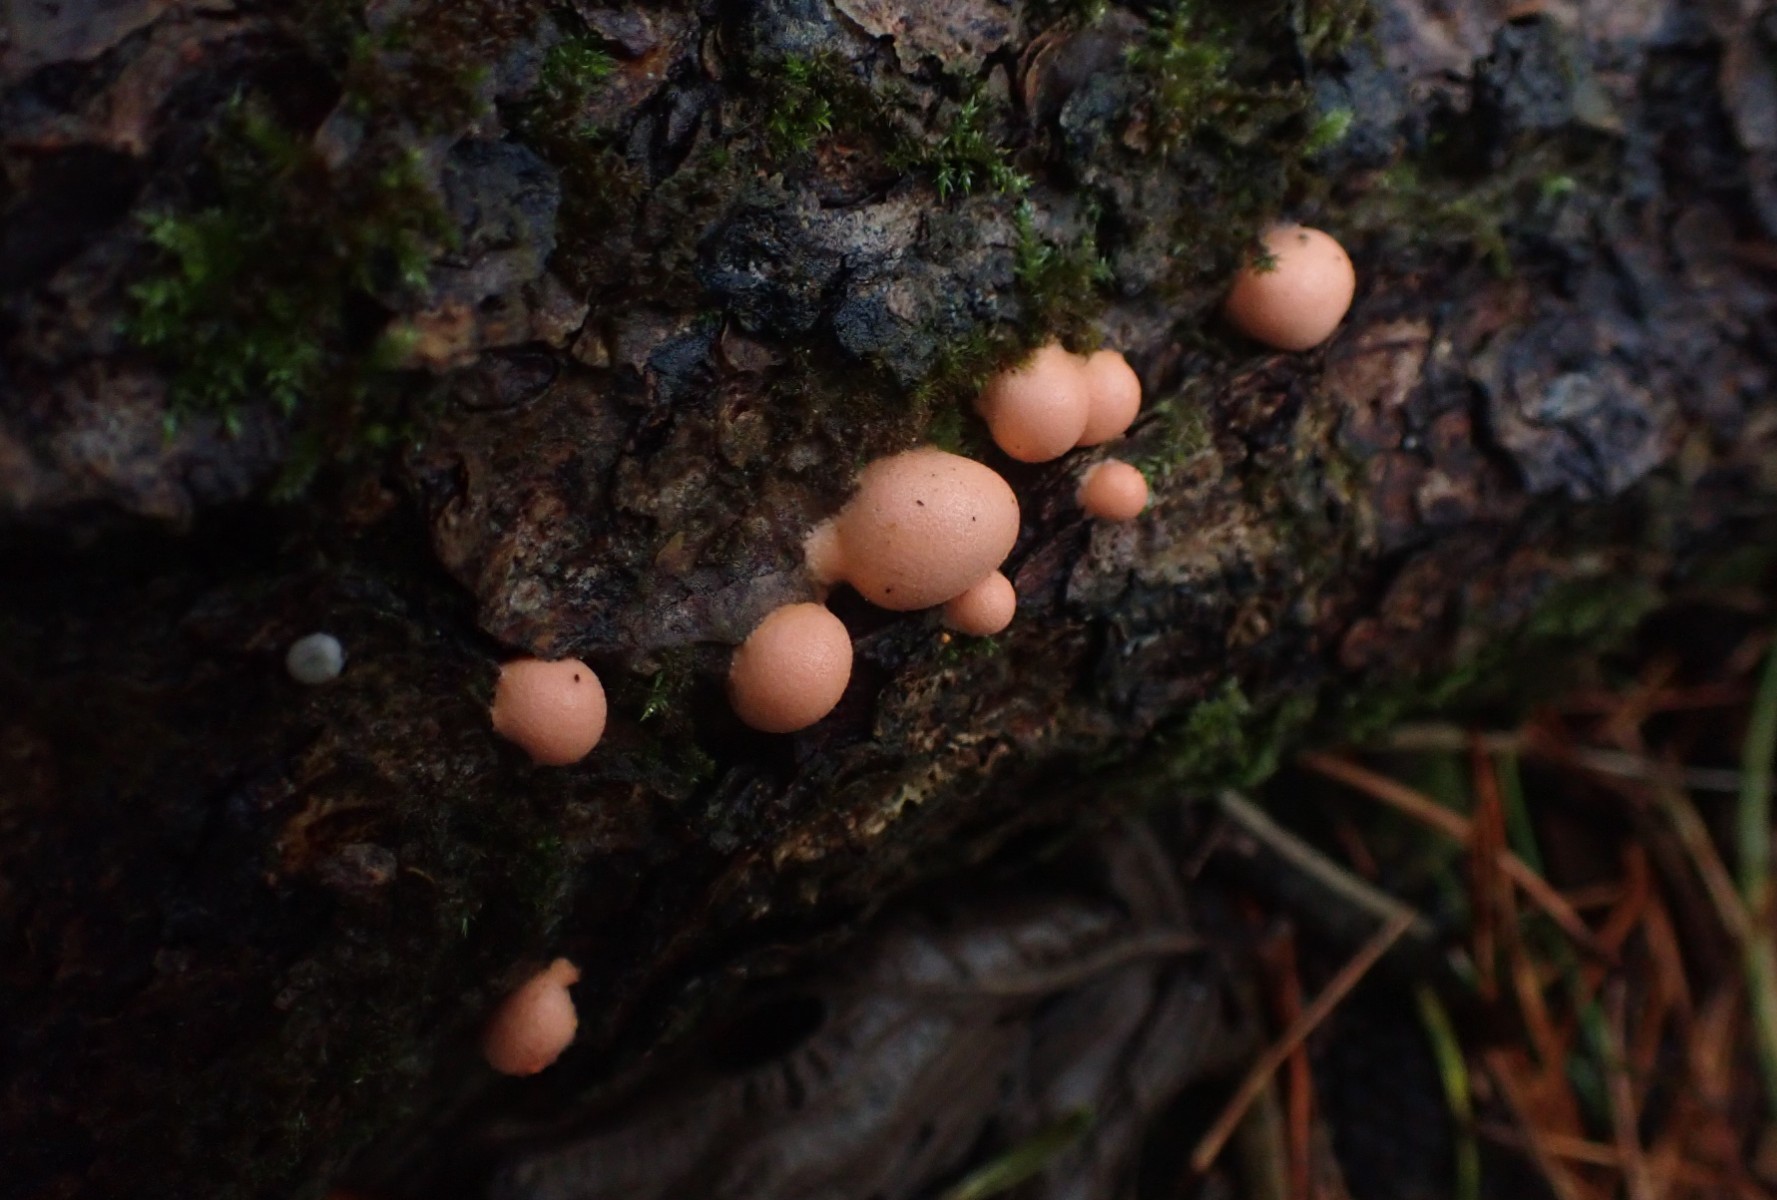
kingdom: Protozoa
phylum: Mycetozoa
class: Myxomycetes
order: Cribrariales
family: Tubiferaceae
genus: Lycogala
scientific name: Lycogala epidendrum
